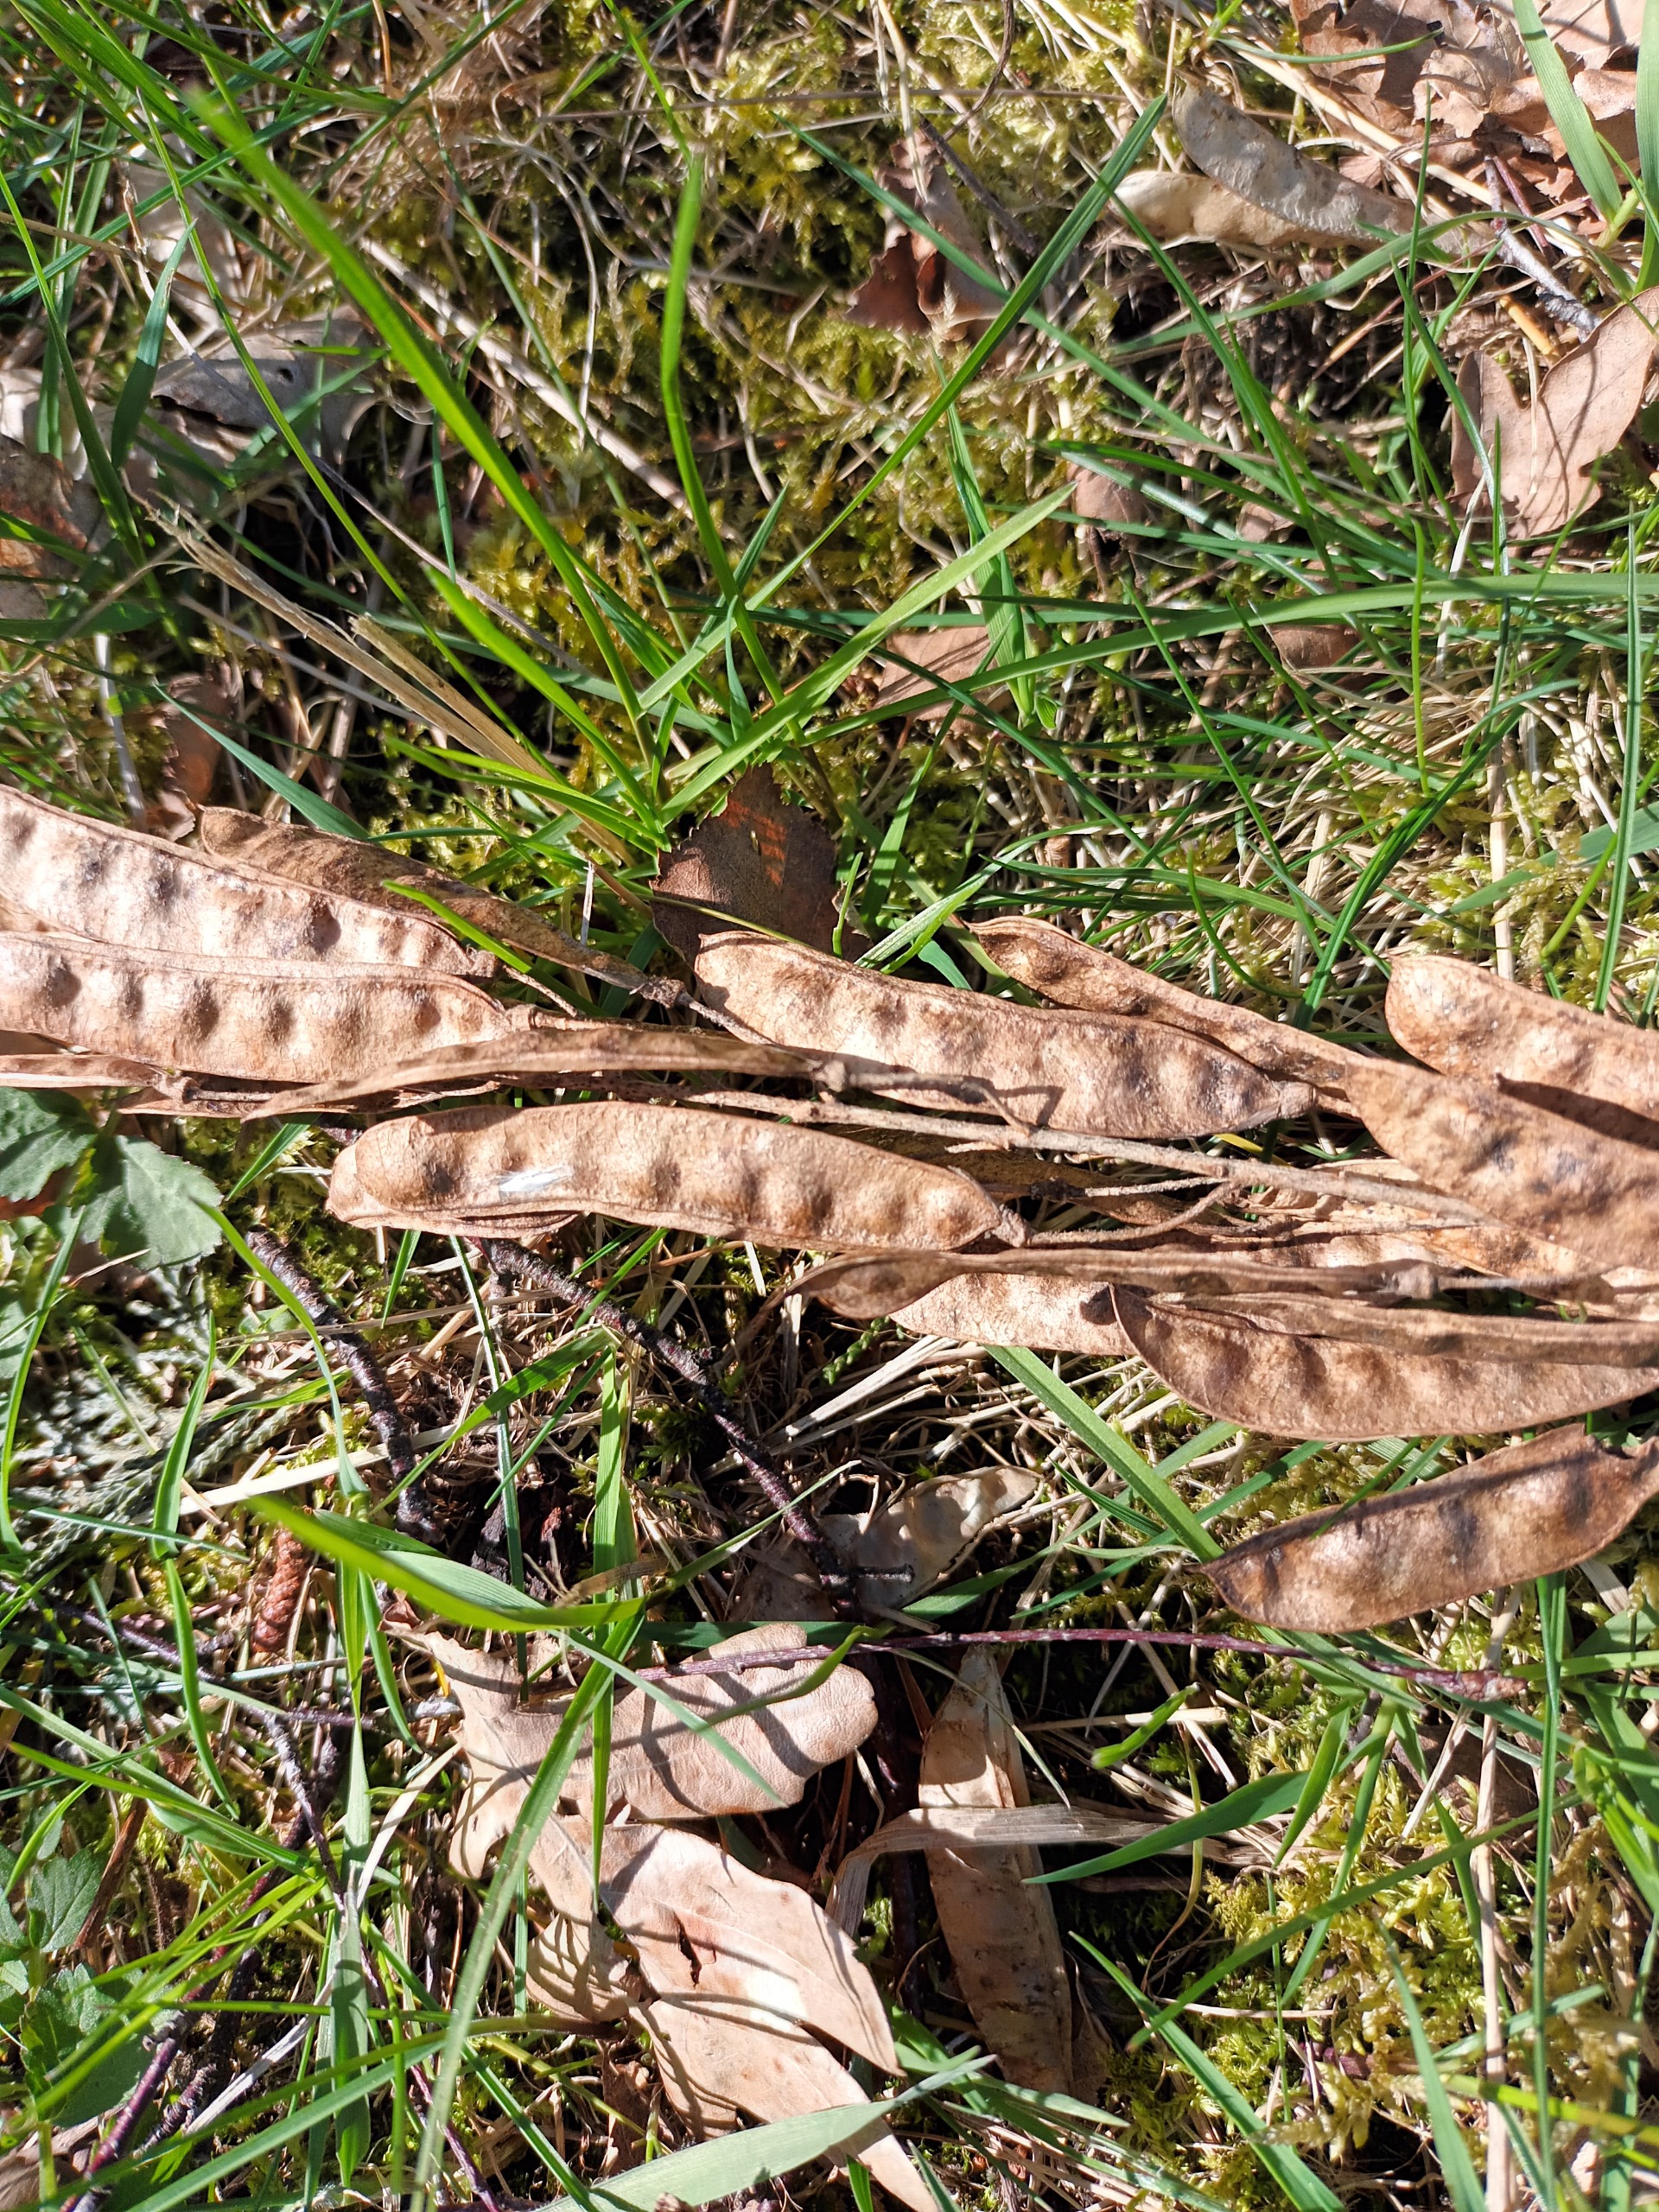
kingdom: Plantae
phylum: Tracheophyta
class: Magnoliopsida
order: Fabales
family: Fabaceae
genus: Laburnum
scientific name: Laburnum alpinum
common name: Alpe-guldregn
